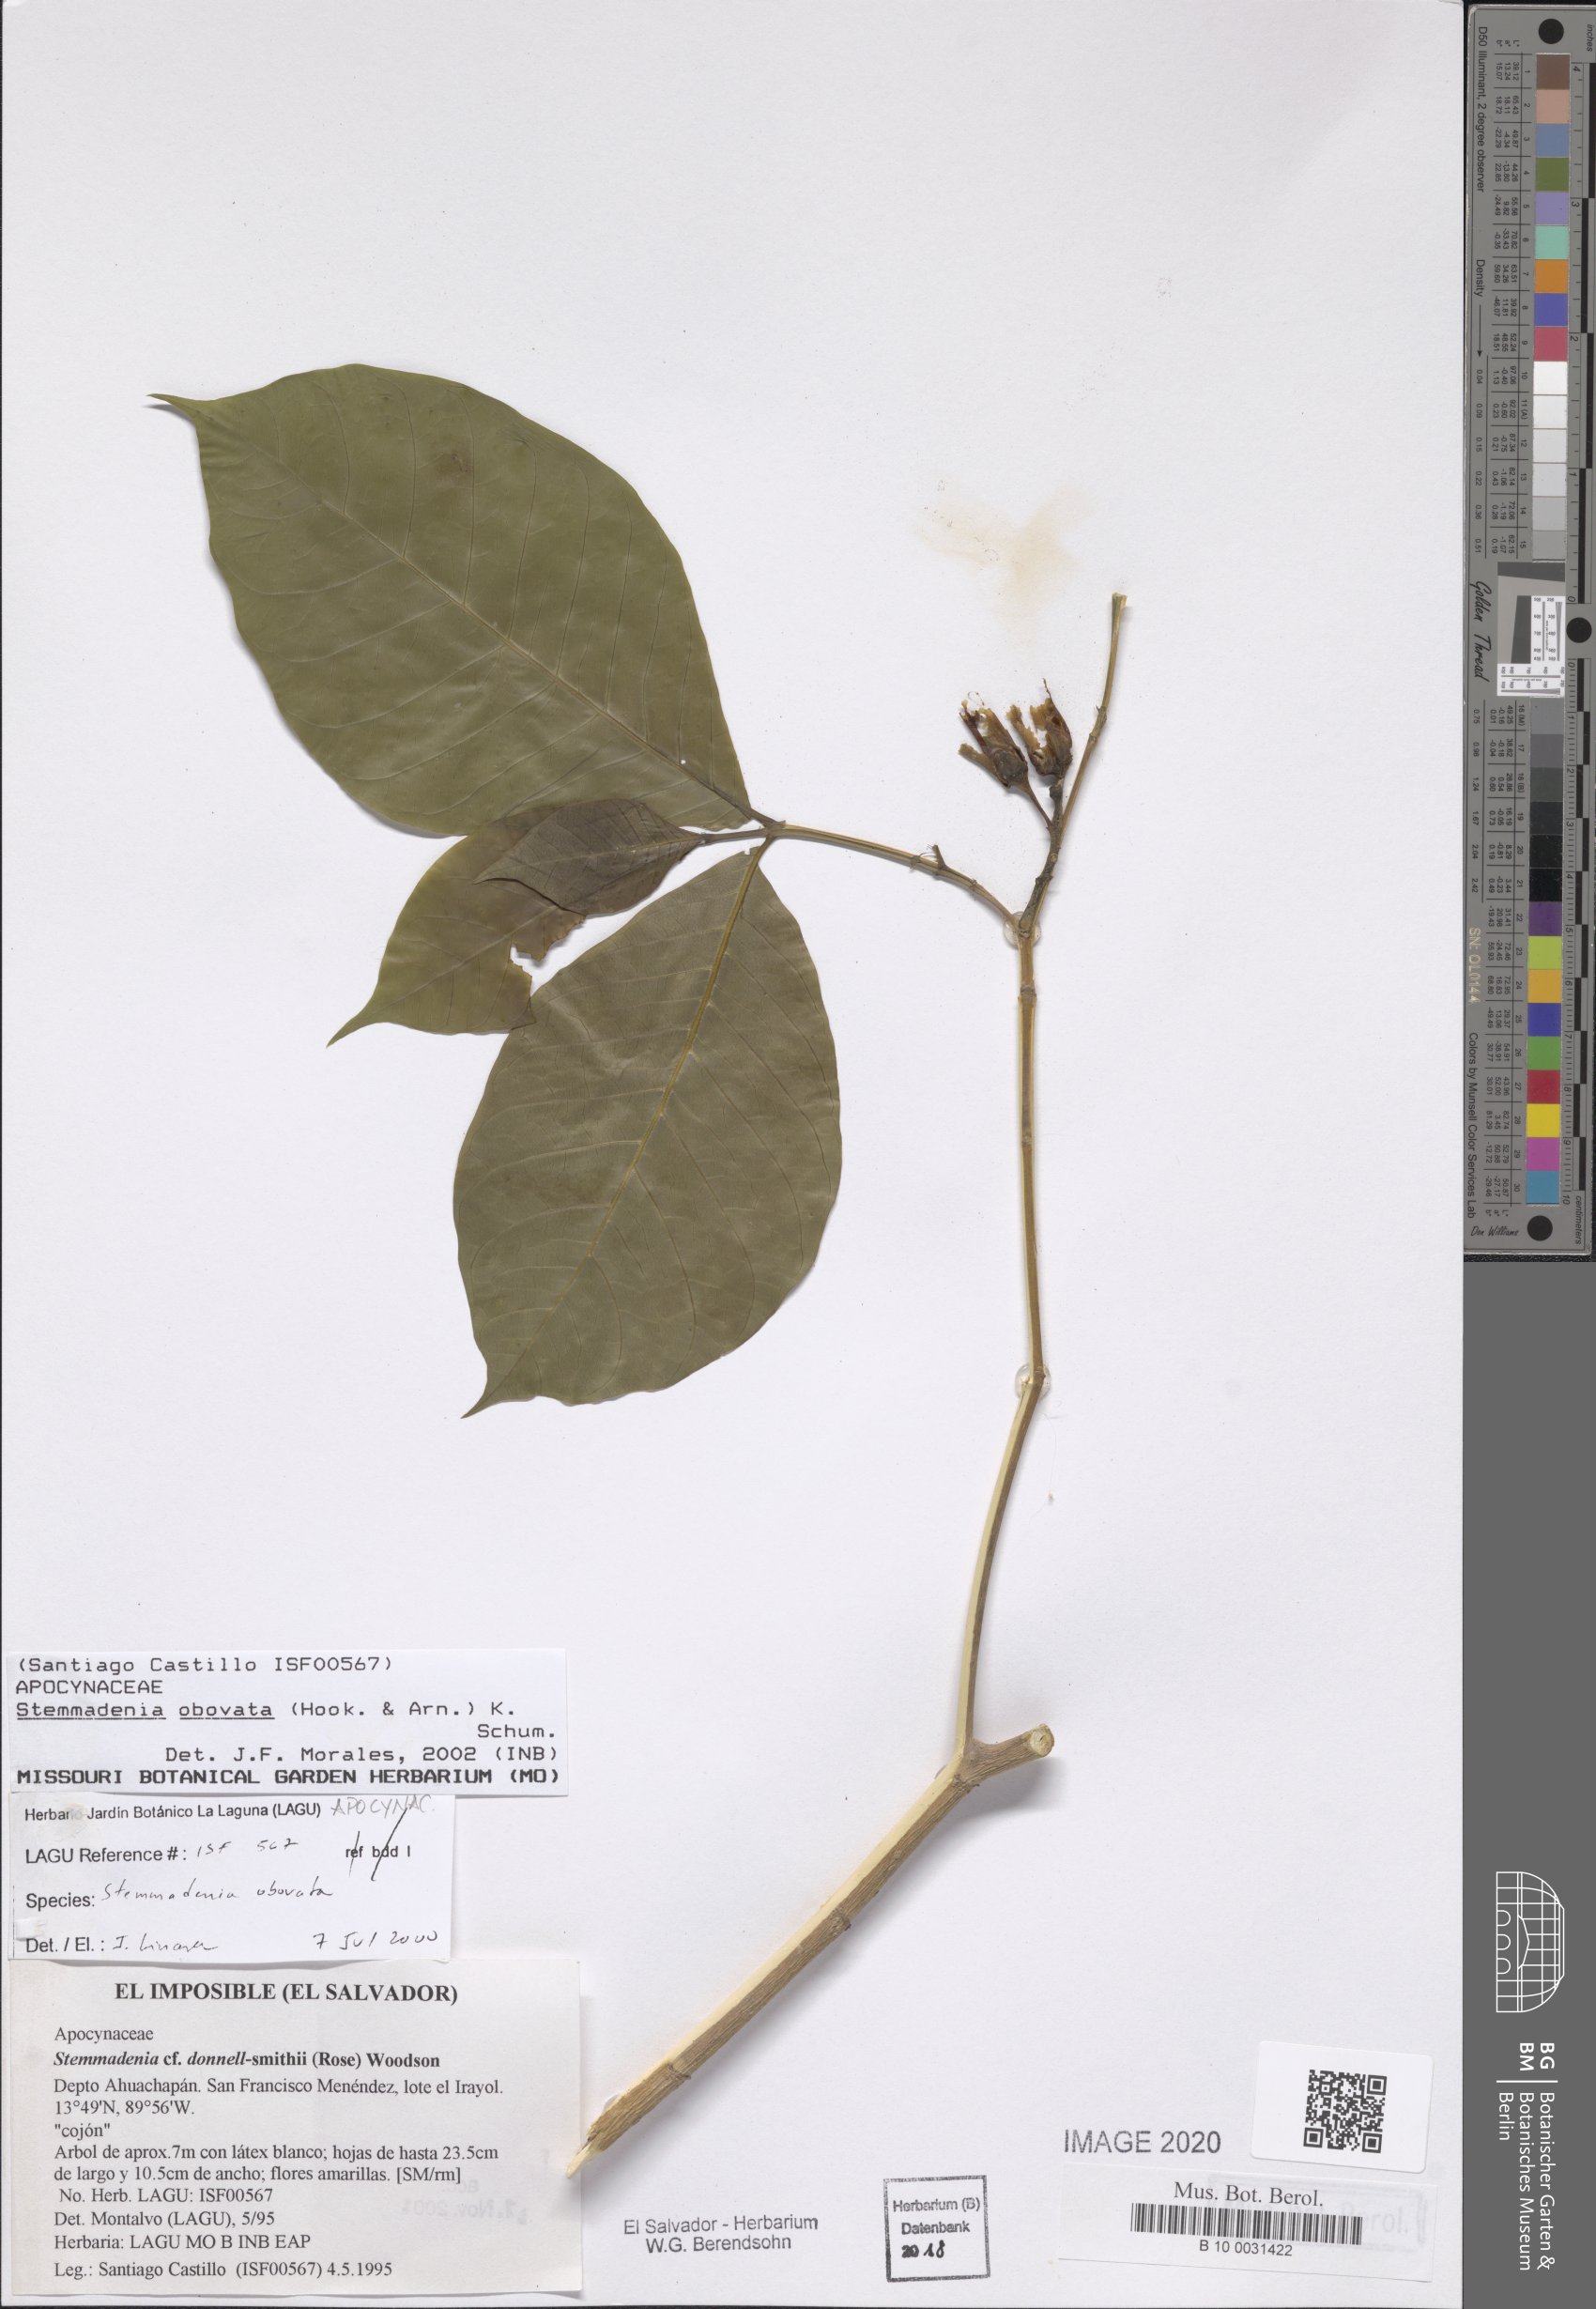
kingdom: Plantae
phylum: Tracheophyta
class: Magnoliopsida
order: Gentianales
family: Apocynaceae
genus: Tabernaemontana
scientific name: Tabernaemontana glabra
